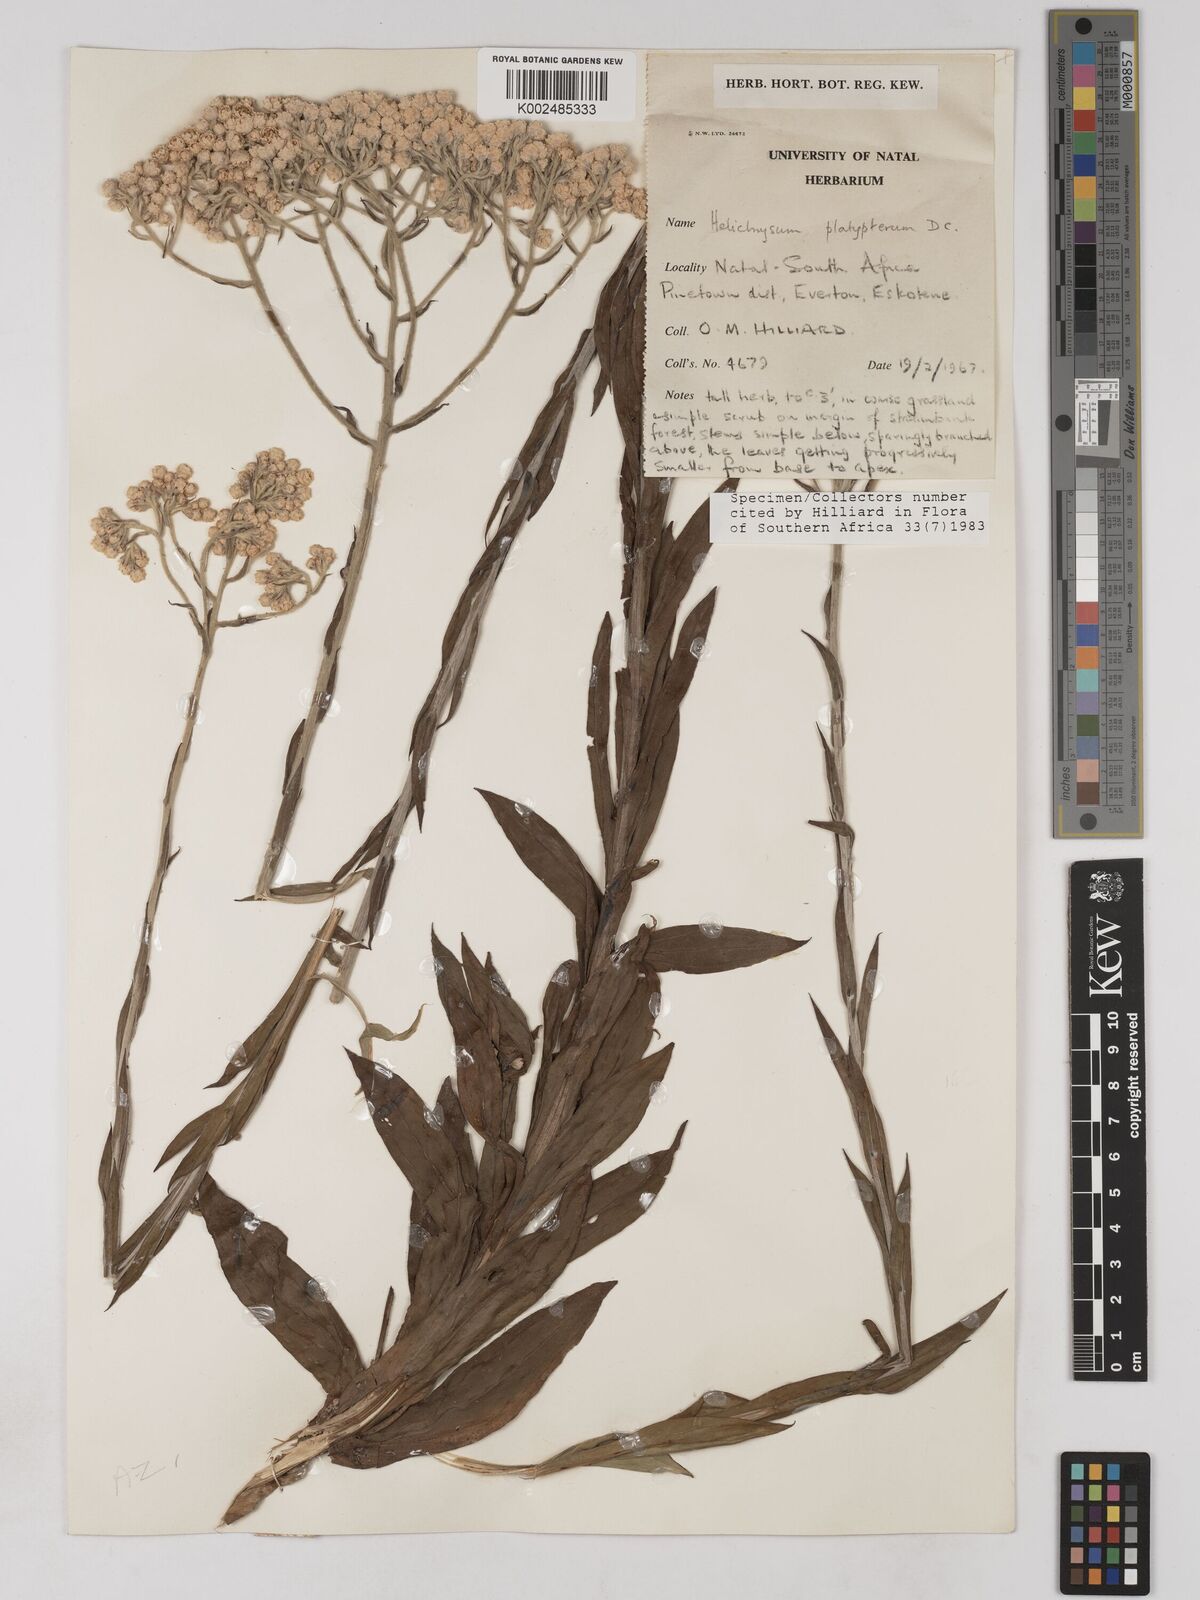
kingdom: Plantae
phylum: Tracheophyta
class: Magnoliopsida
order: Asterales
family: Asteraceae
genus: Helichrysum
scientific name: Helichrysum platypterum
